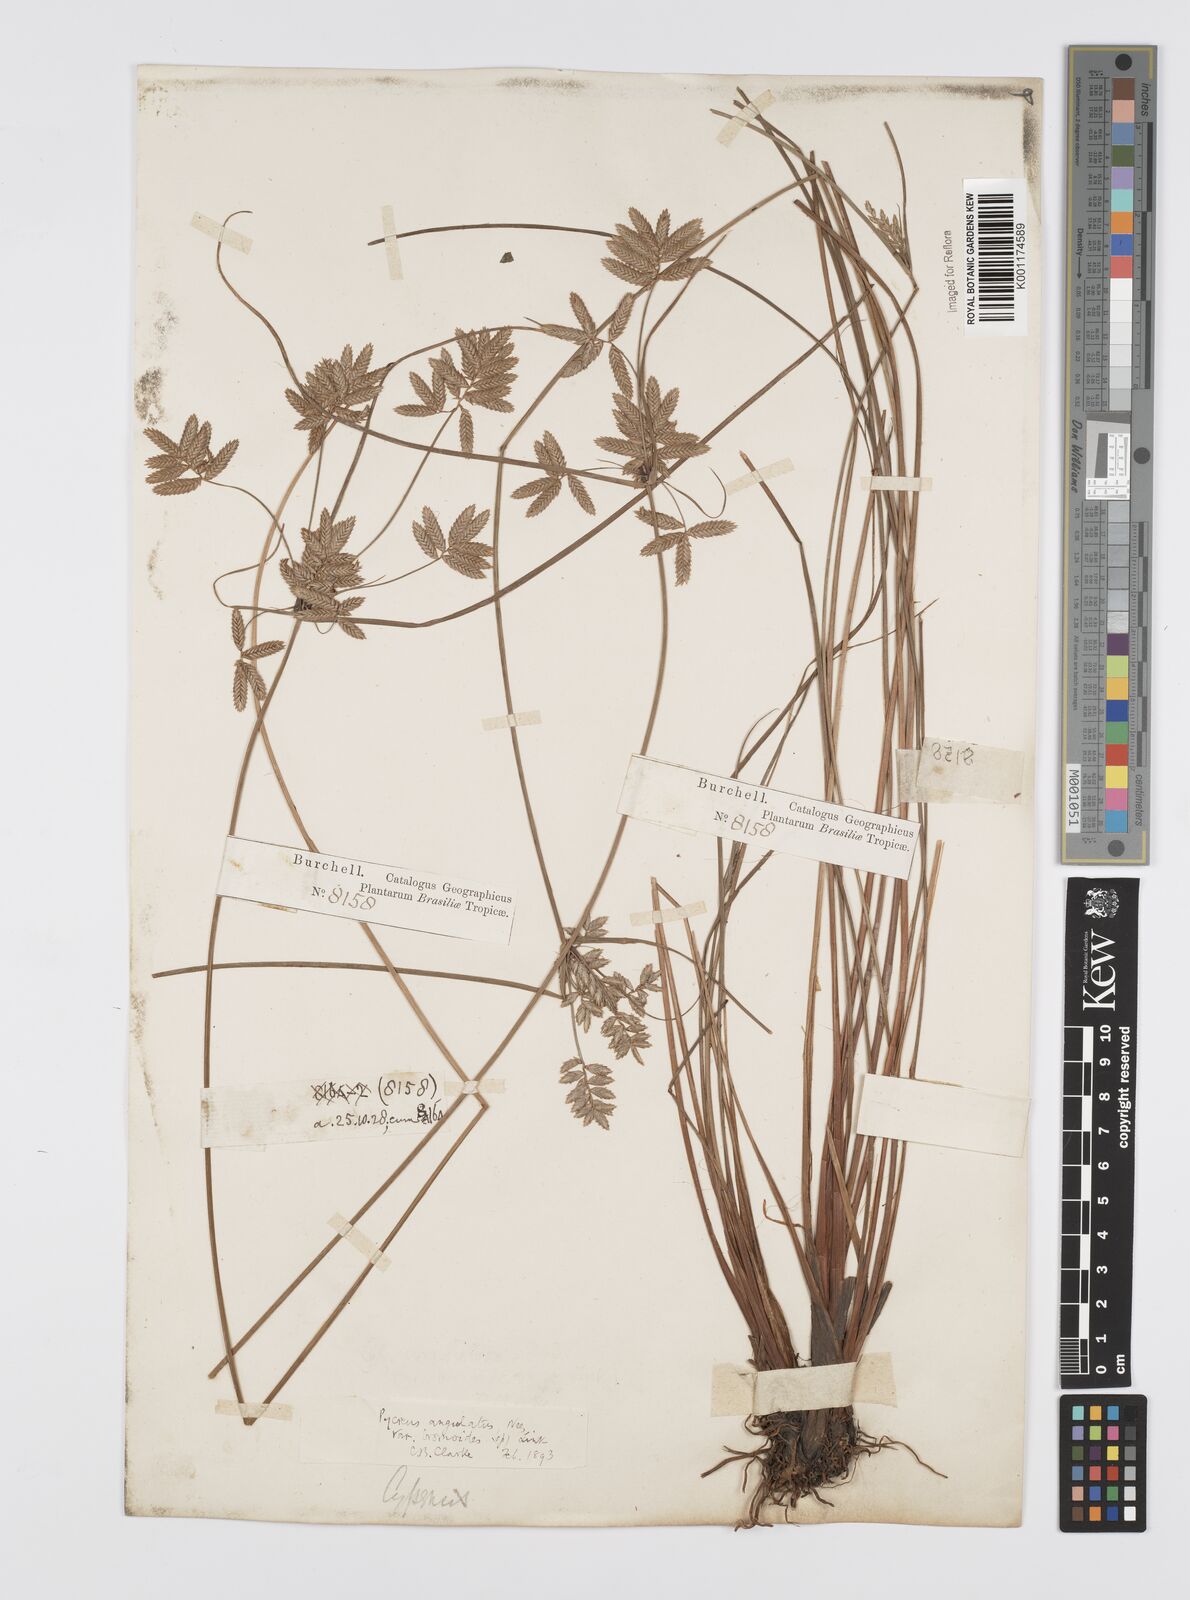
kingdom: Plantae
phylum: Tracheophyta
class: Liliopsida
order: Poales
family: Cyperaceae
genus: Cyperus
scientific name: Cyperus unioloides
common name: Uniola flatsedge
